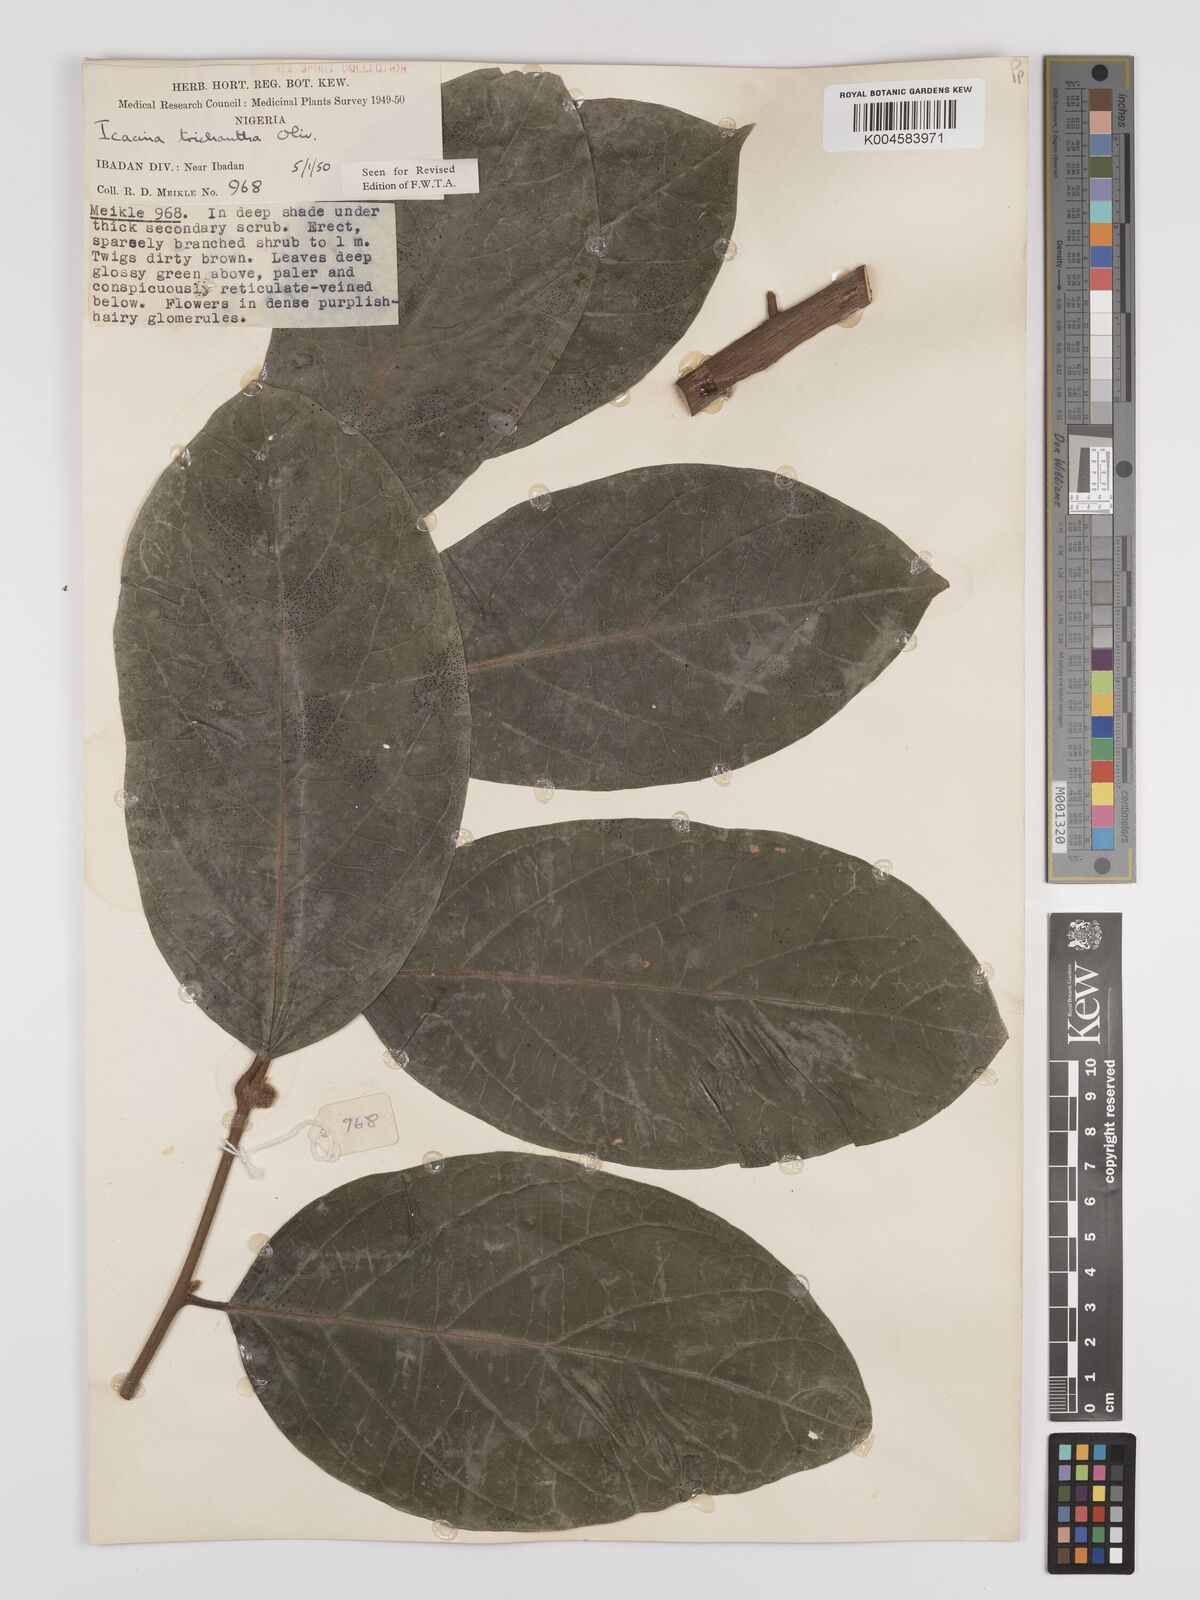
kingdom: Plantae
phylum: Tracheophyta
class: Magnoliopsida
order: Icacinales
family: Icacinaceae
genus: Icacina
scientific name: Icacina trichantha
